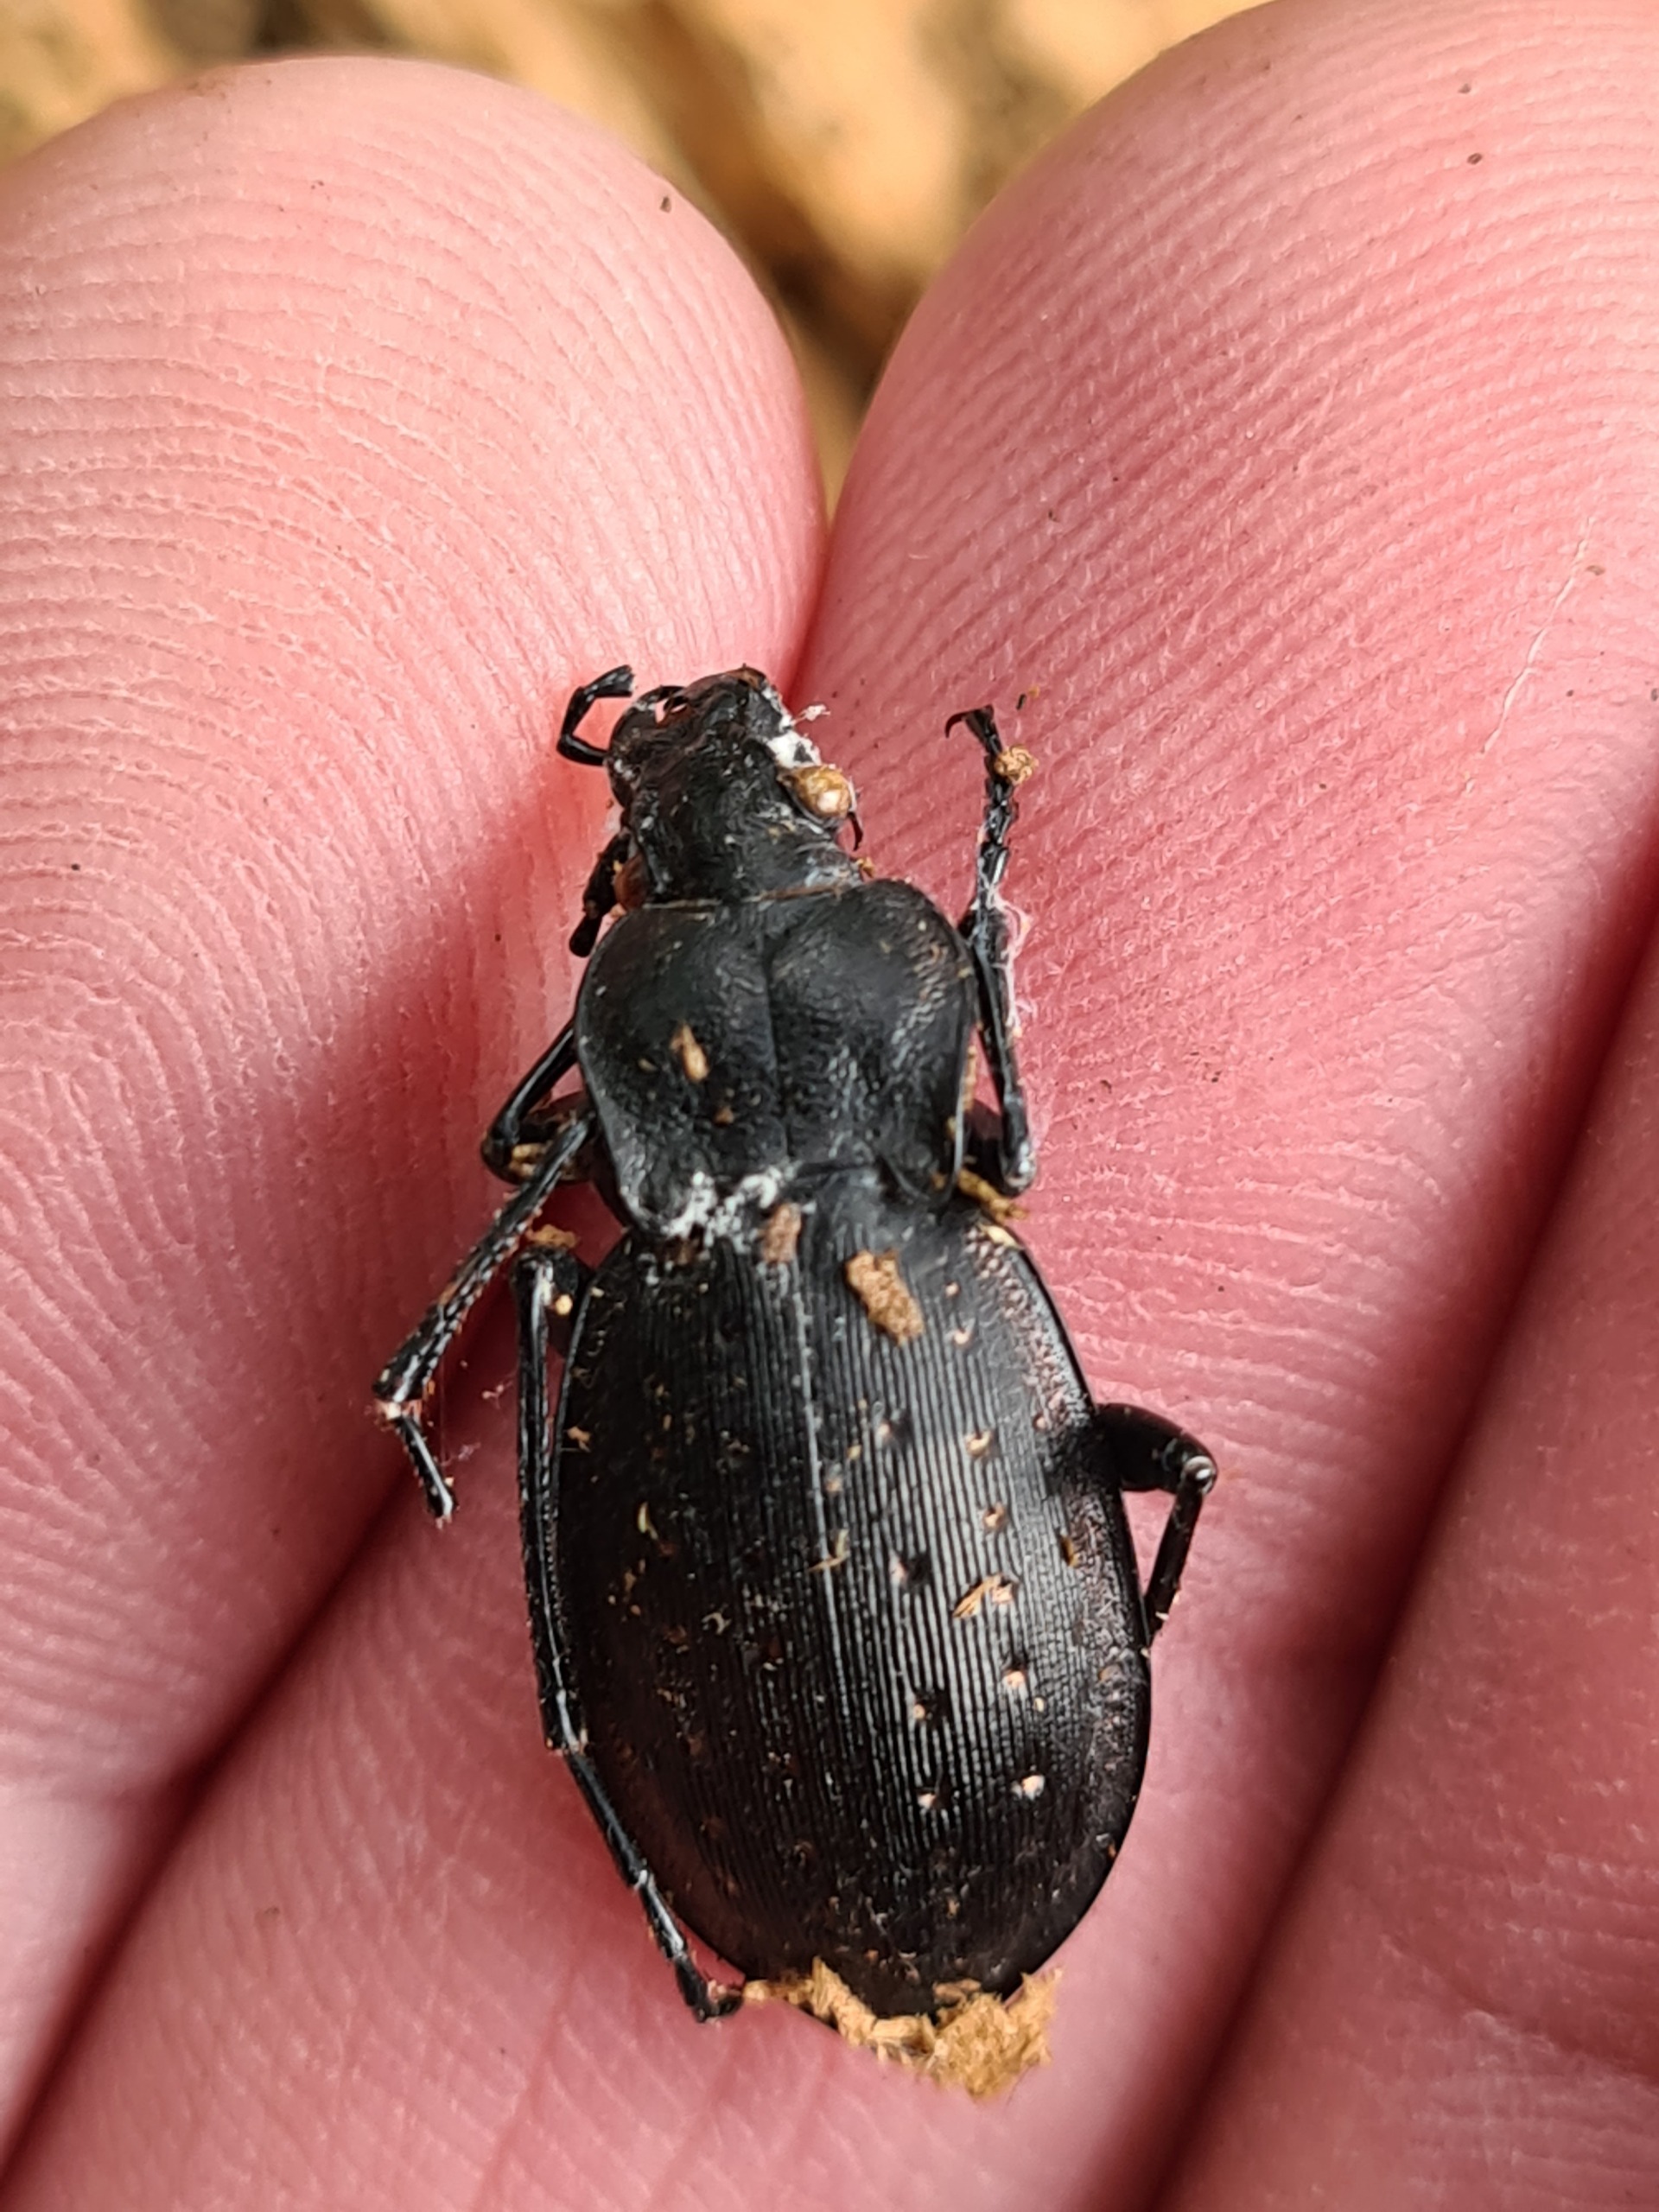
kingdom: Animalia
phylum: Arthropoda
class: Insecta
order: Coleoptera
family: Carabidae
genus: Carabus
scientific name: Carabus hortensis
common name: Guldpletløber
